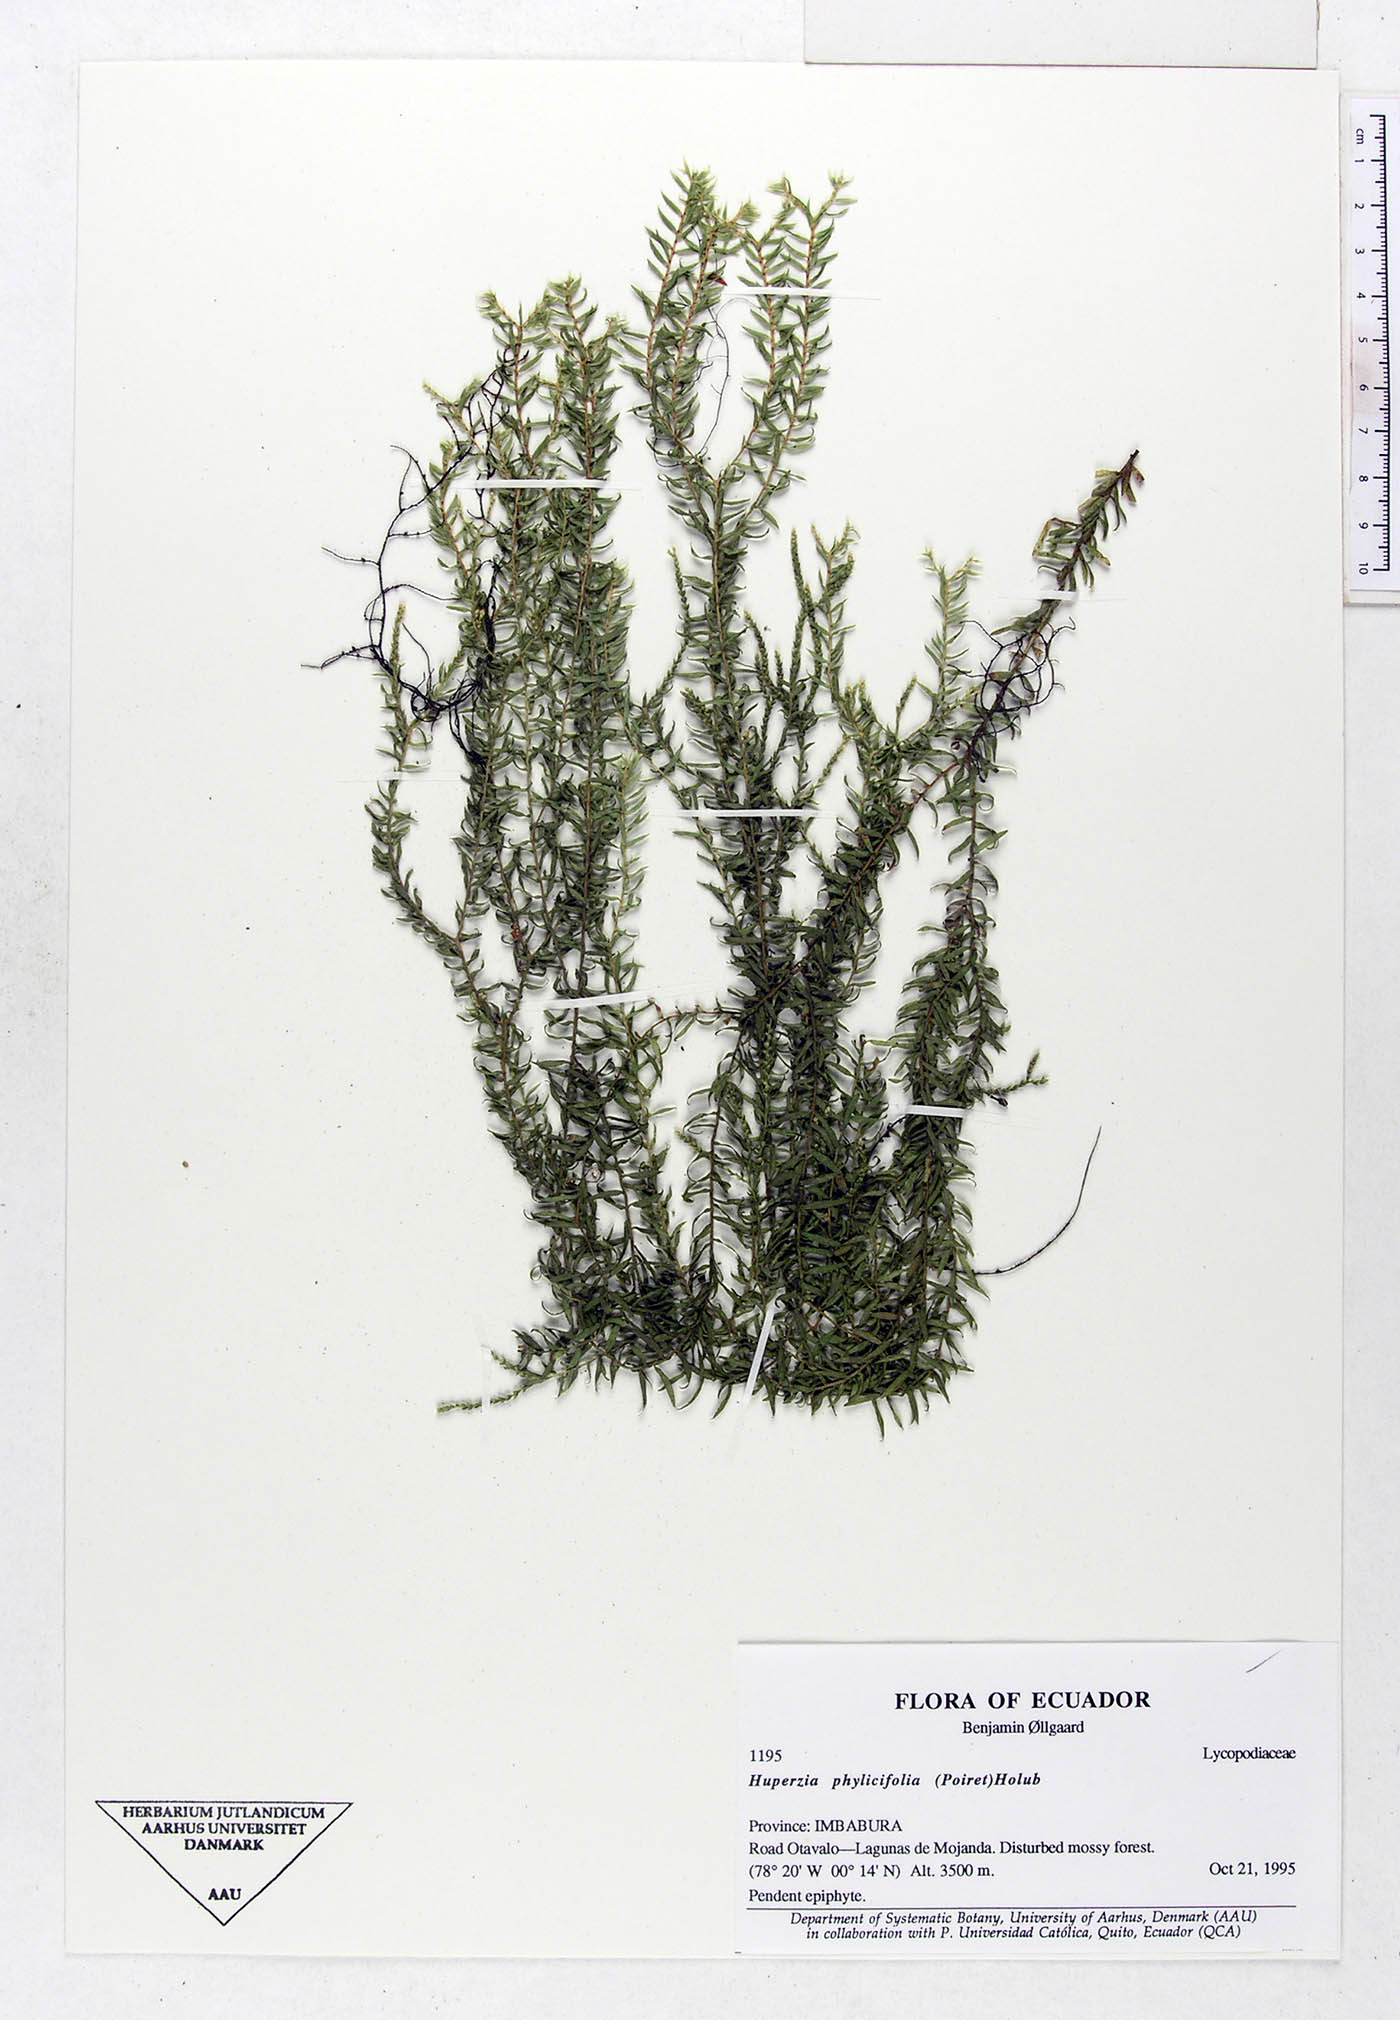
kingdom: Plantae
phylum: Tracheophyta
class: Lycopodiopsida
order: Lycopodiales
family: Lycopodiaceae
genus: Phlegmariurus
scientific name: Phlegmariurus phylicifolius
